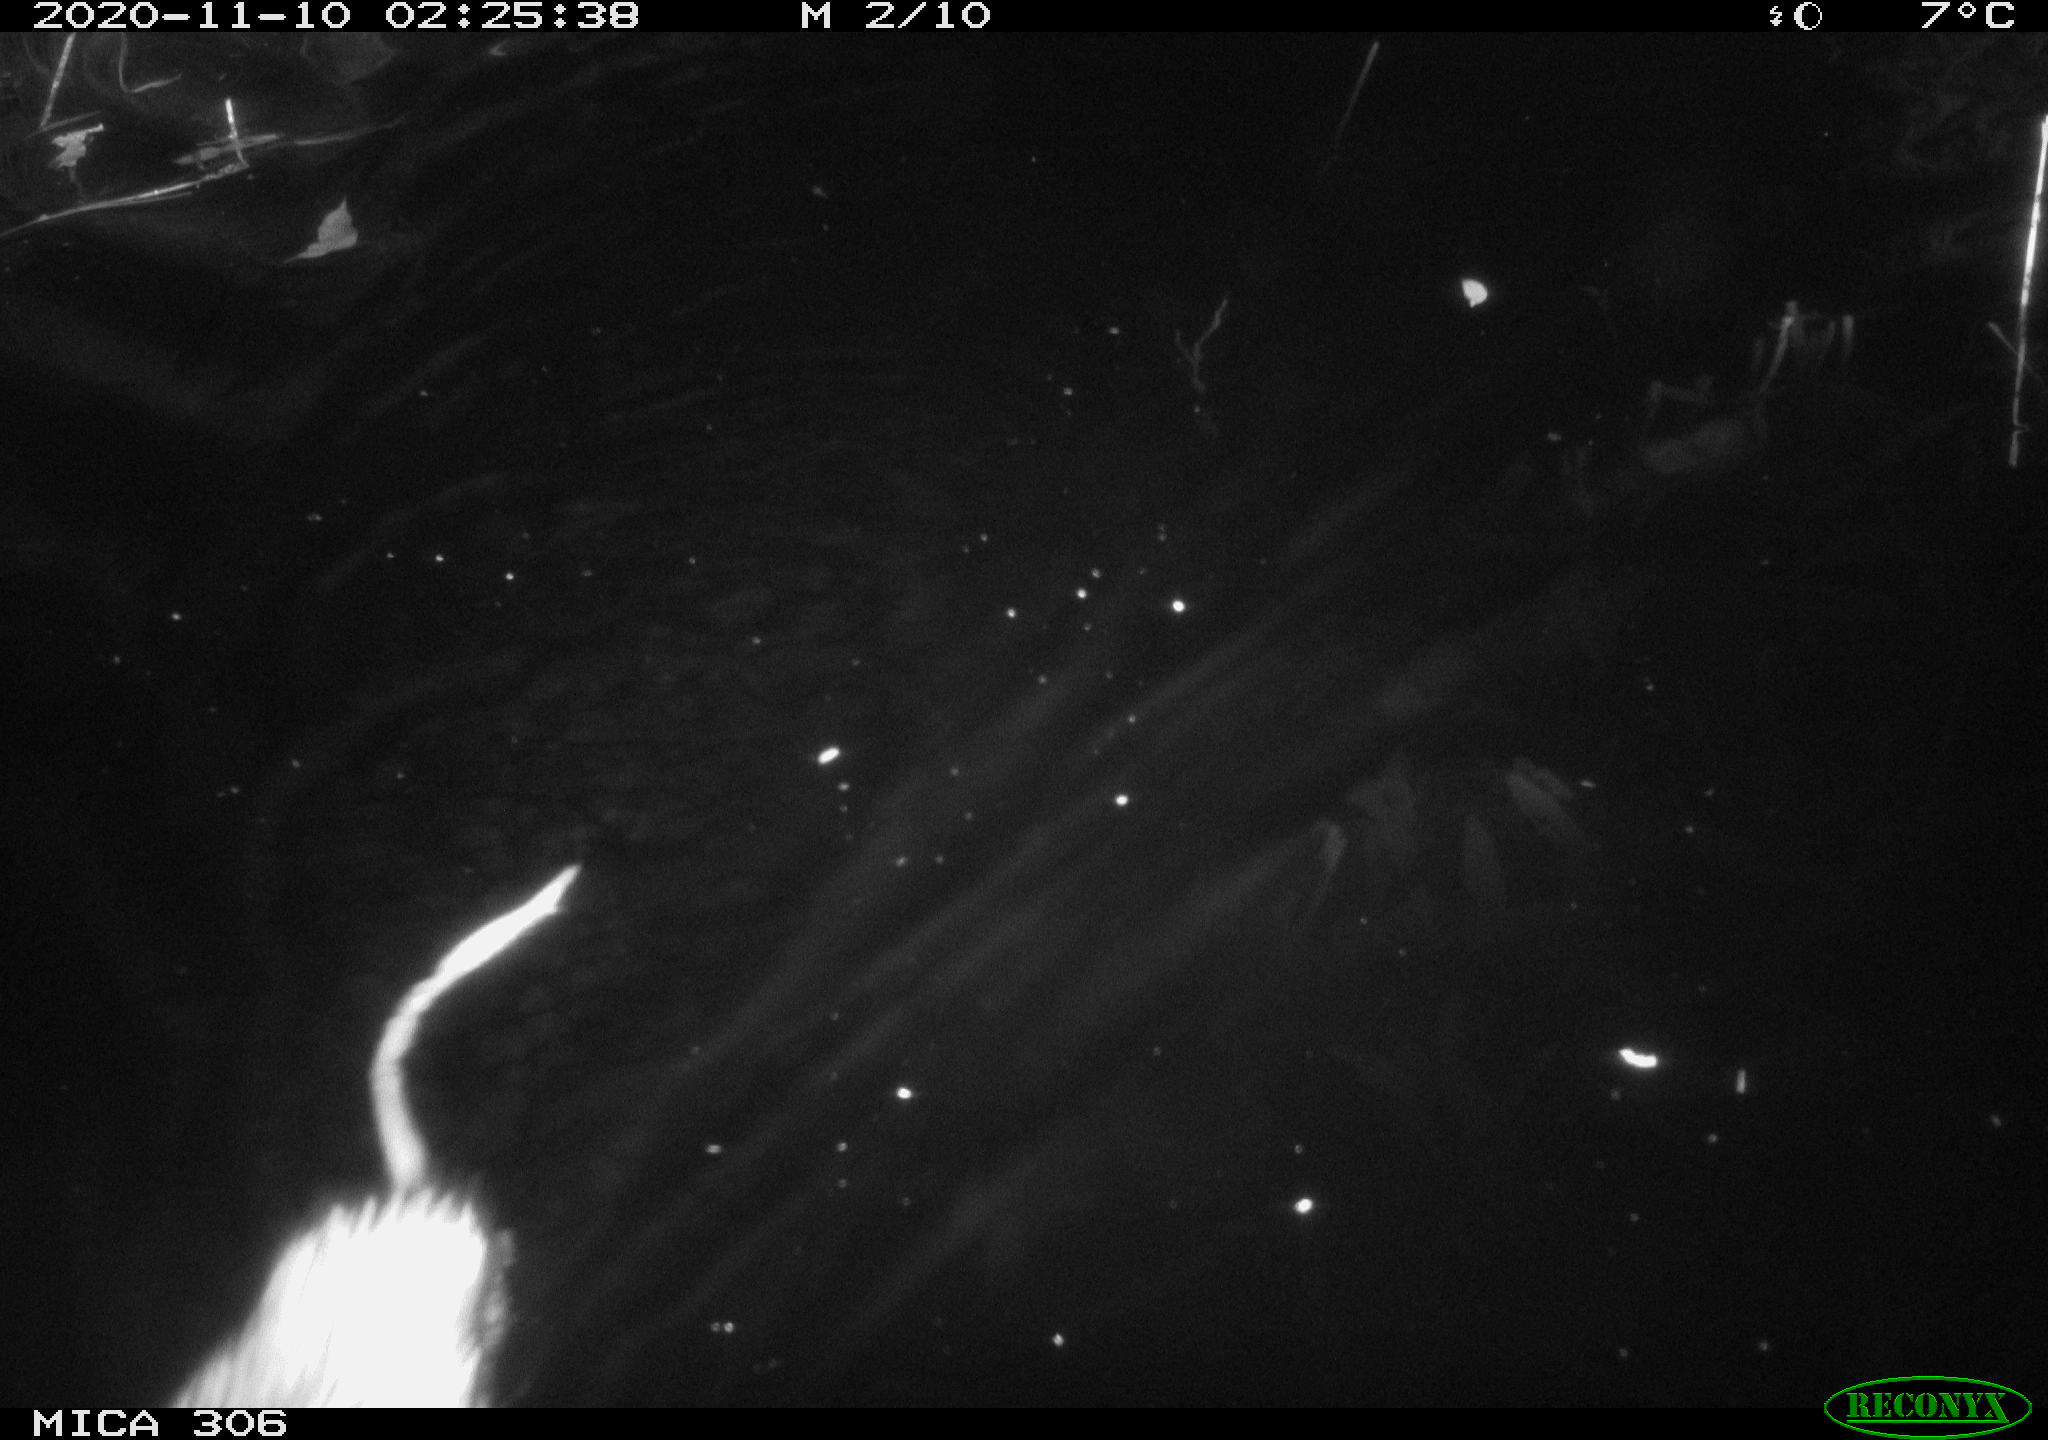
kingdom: Animalia
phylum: Chordata
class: Mammalia
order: Rodentia
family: Cricetidae
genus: Ondatra
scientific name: Ondatra zibethicus
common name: Muskrat
